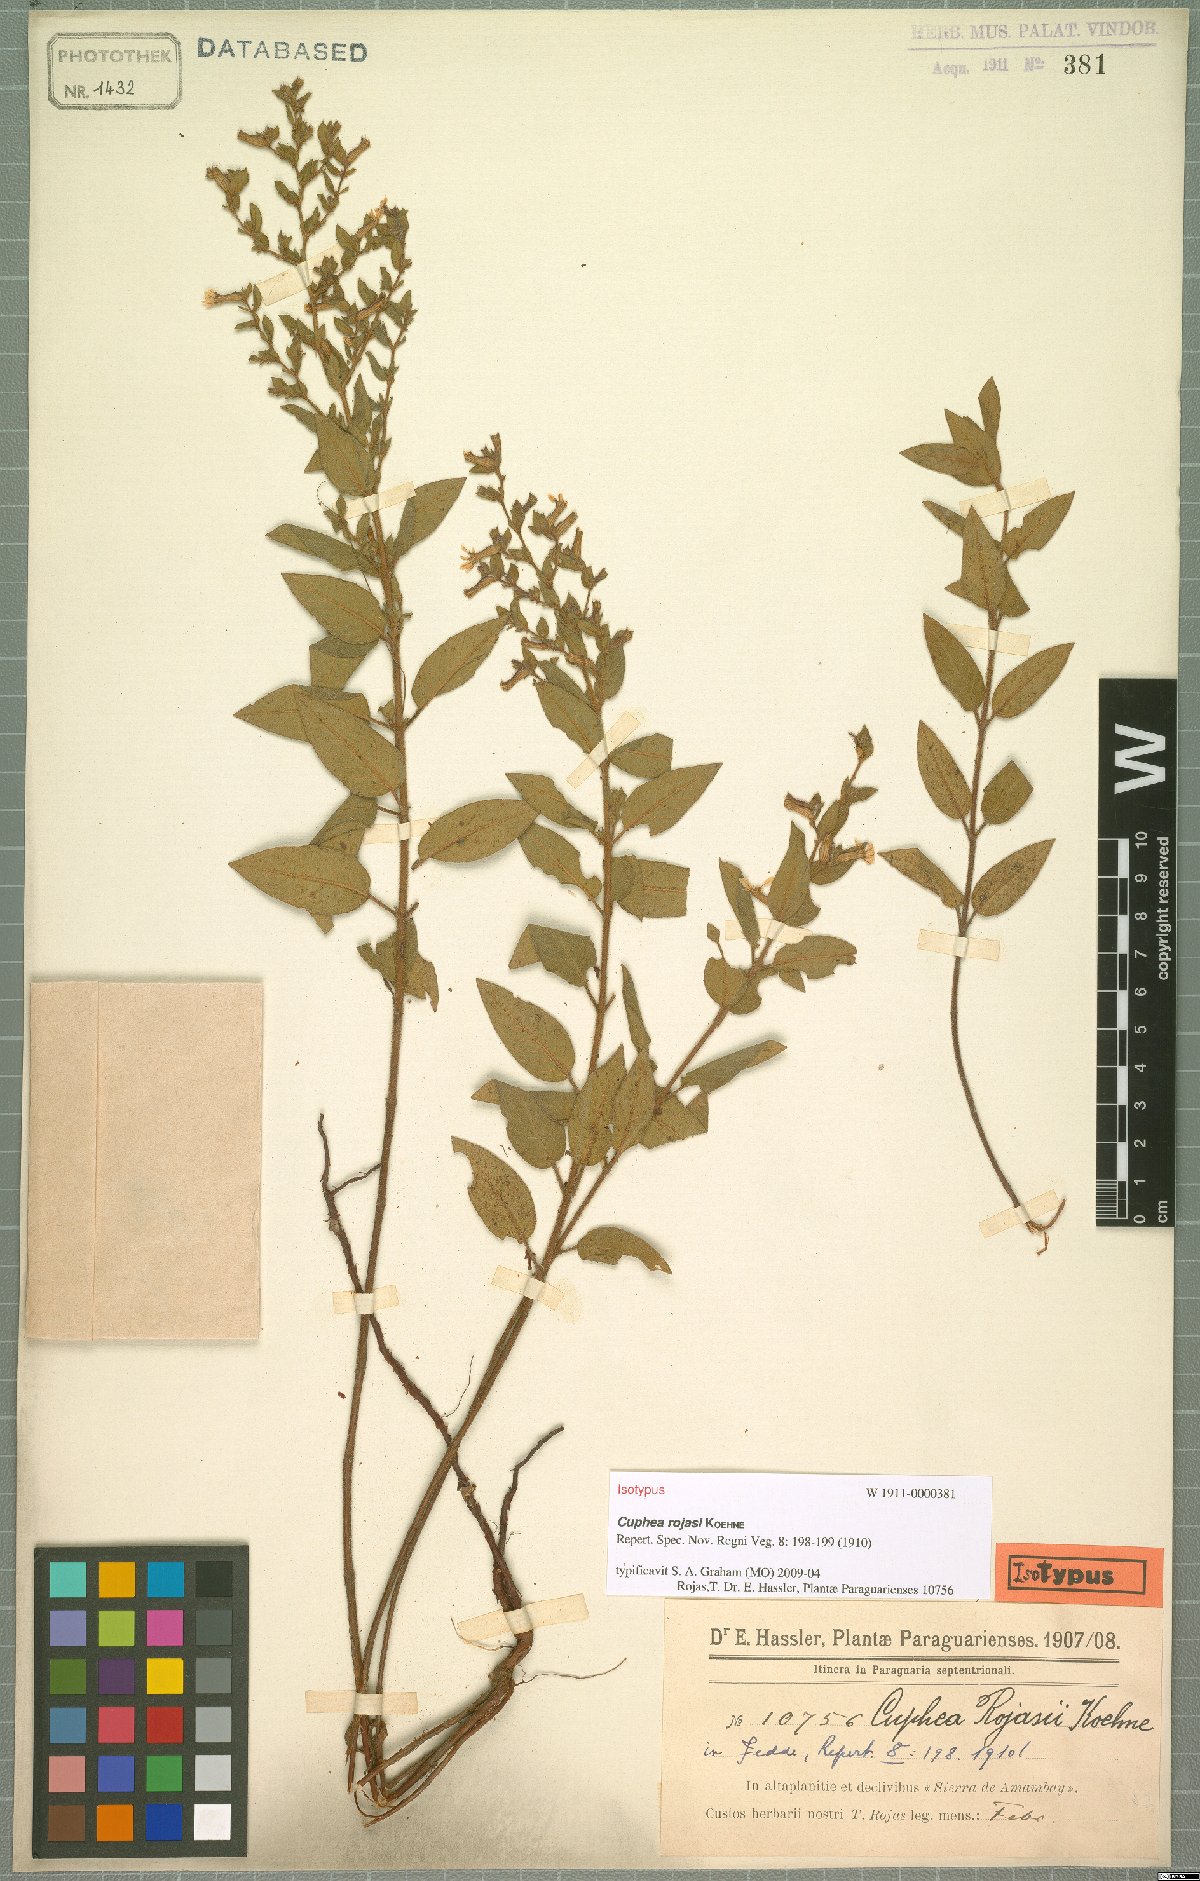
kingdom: Plantae
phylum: Tracheophyta
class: Magnoliopsida
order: Myrtales
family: Lythraceae
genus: Cuphea
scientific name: Cuphea sessiliflora
